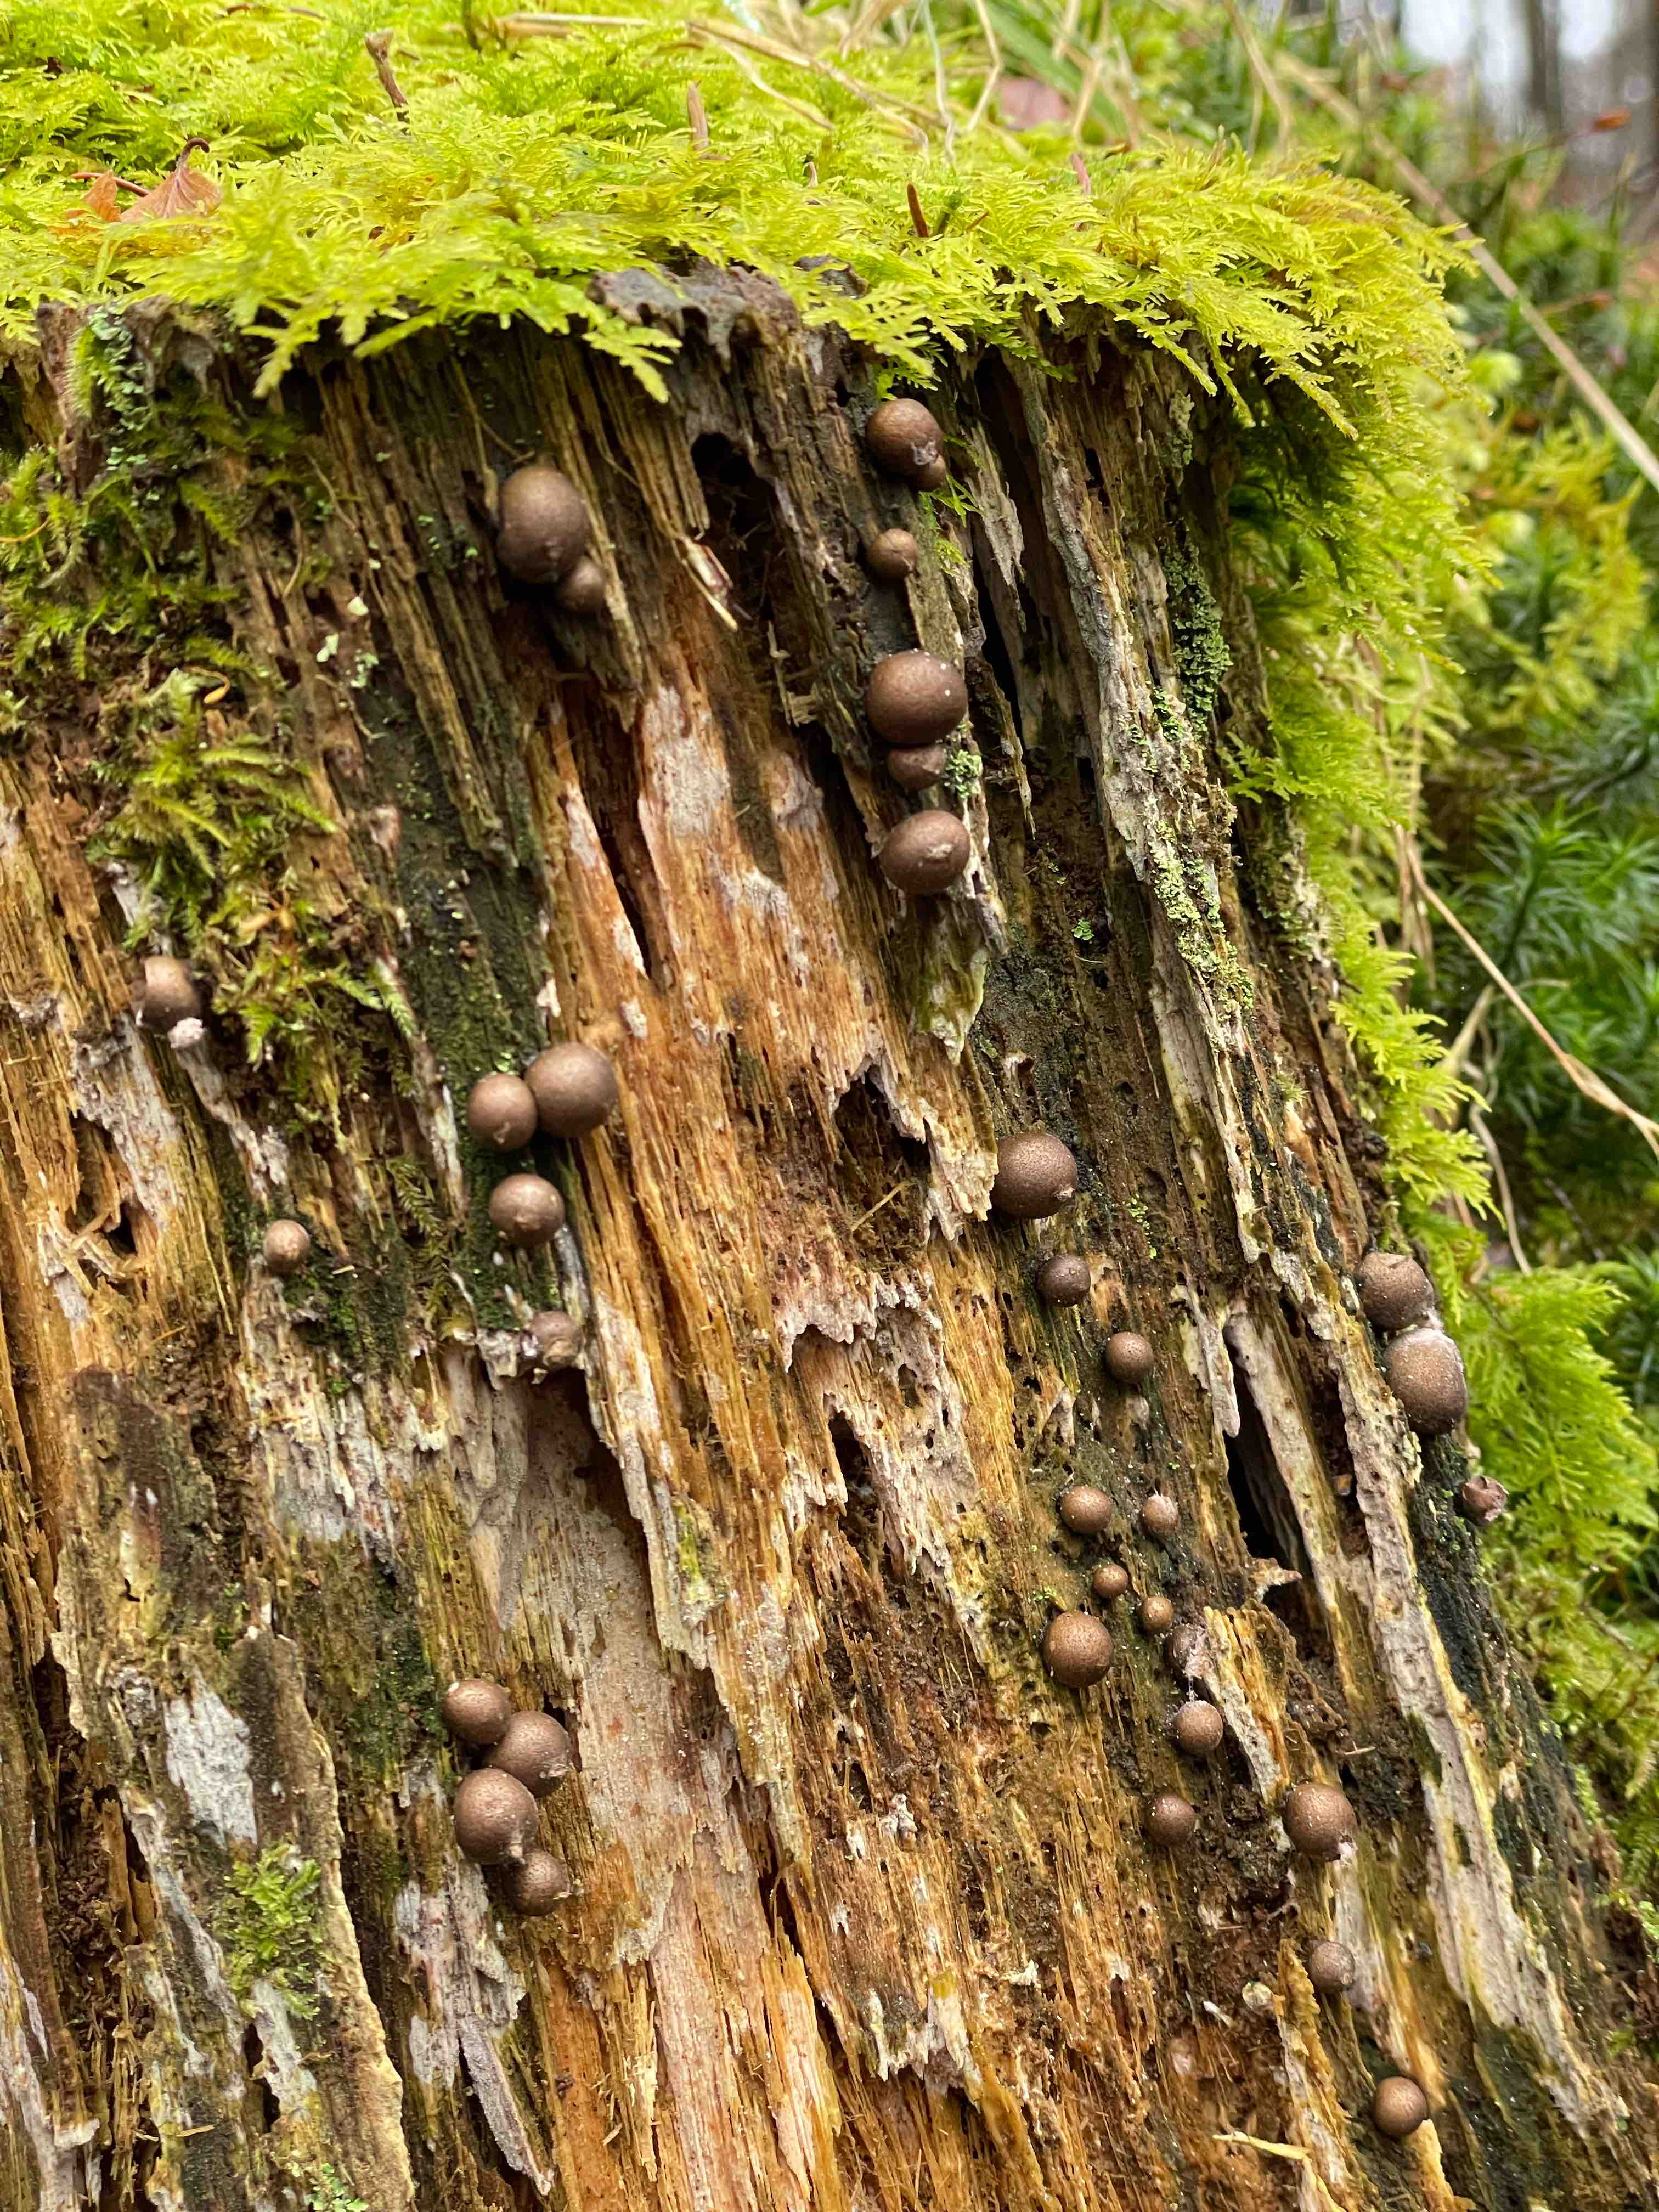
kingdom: Protozoa
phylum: Mycetozoa
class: Myxomycetes
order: Cribrariales
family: Tubiferaceae
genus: Lycogala
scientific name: Lycogala epidendrum
